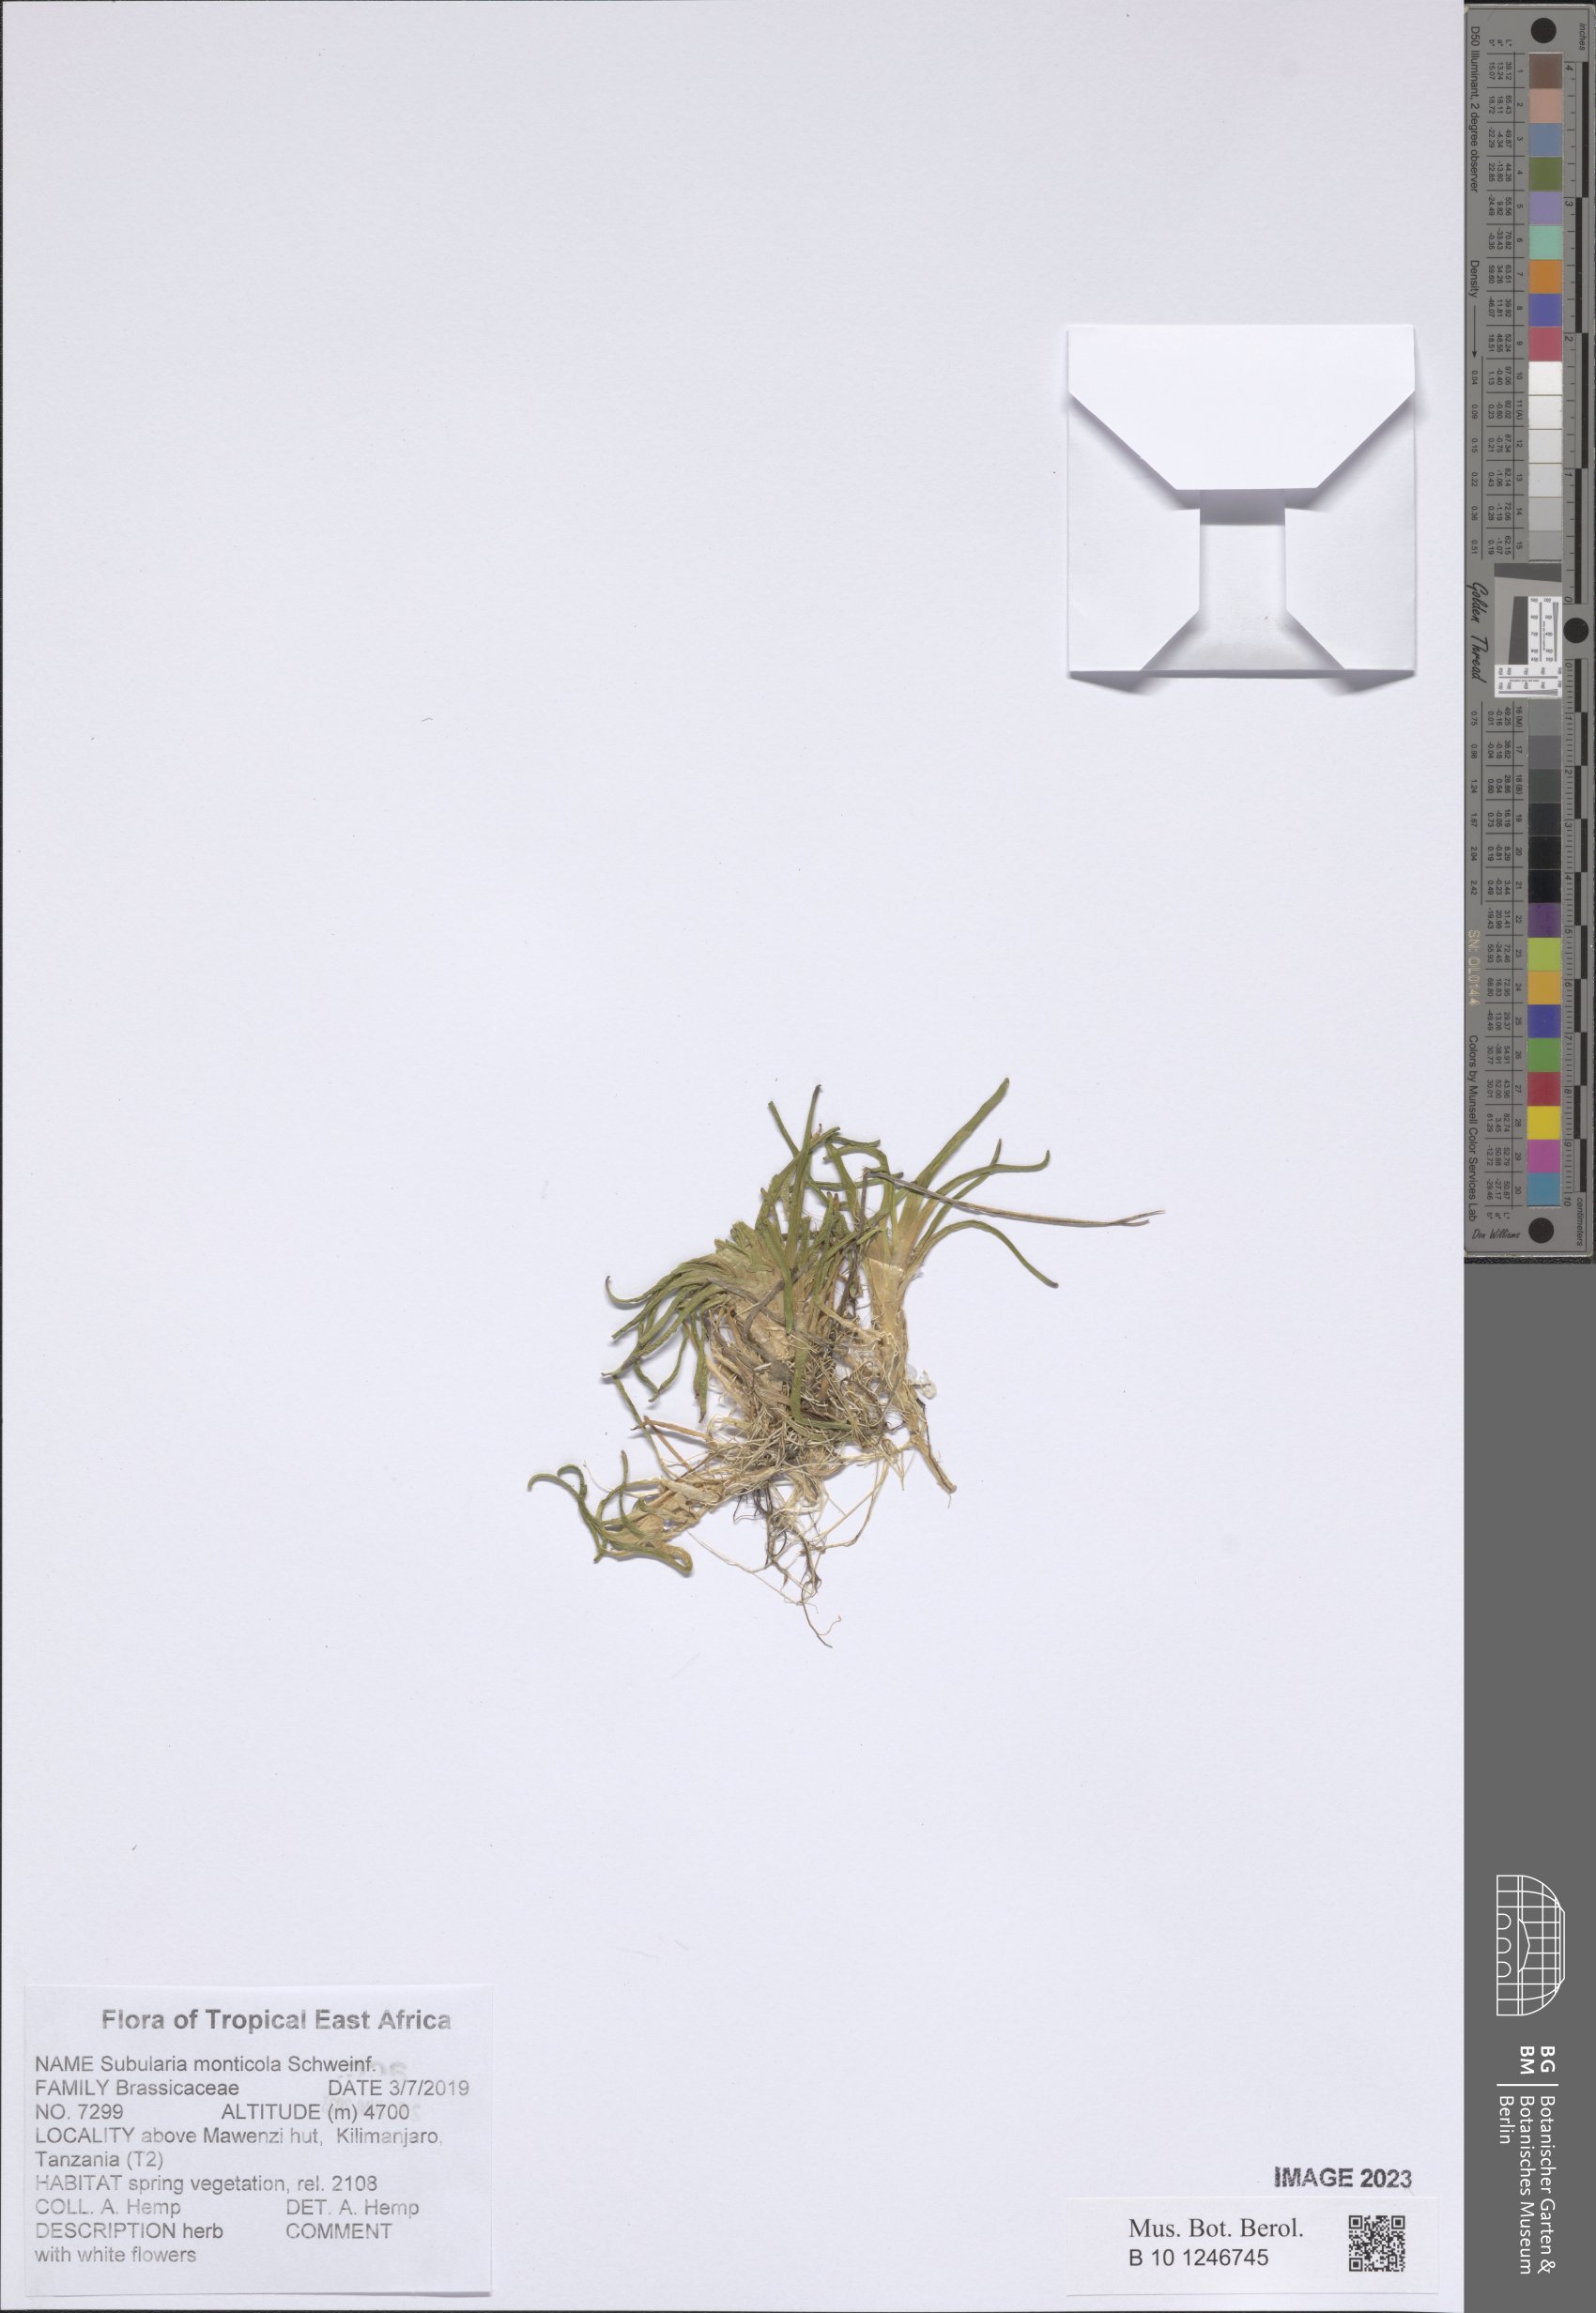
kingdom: Plantae
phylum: Tracheophyta
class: Magnoliopsida
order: Brassicales
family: Brassicaceae
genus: Subularia
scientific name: Subularia monticola
